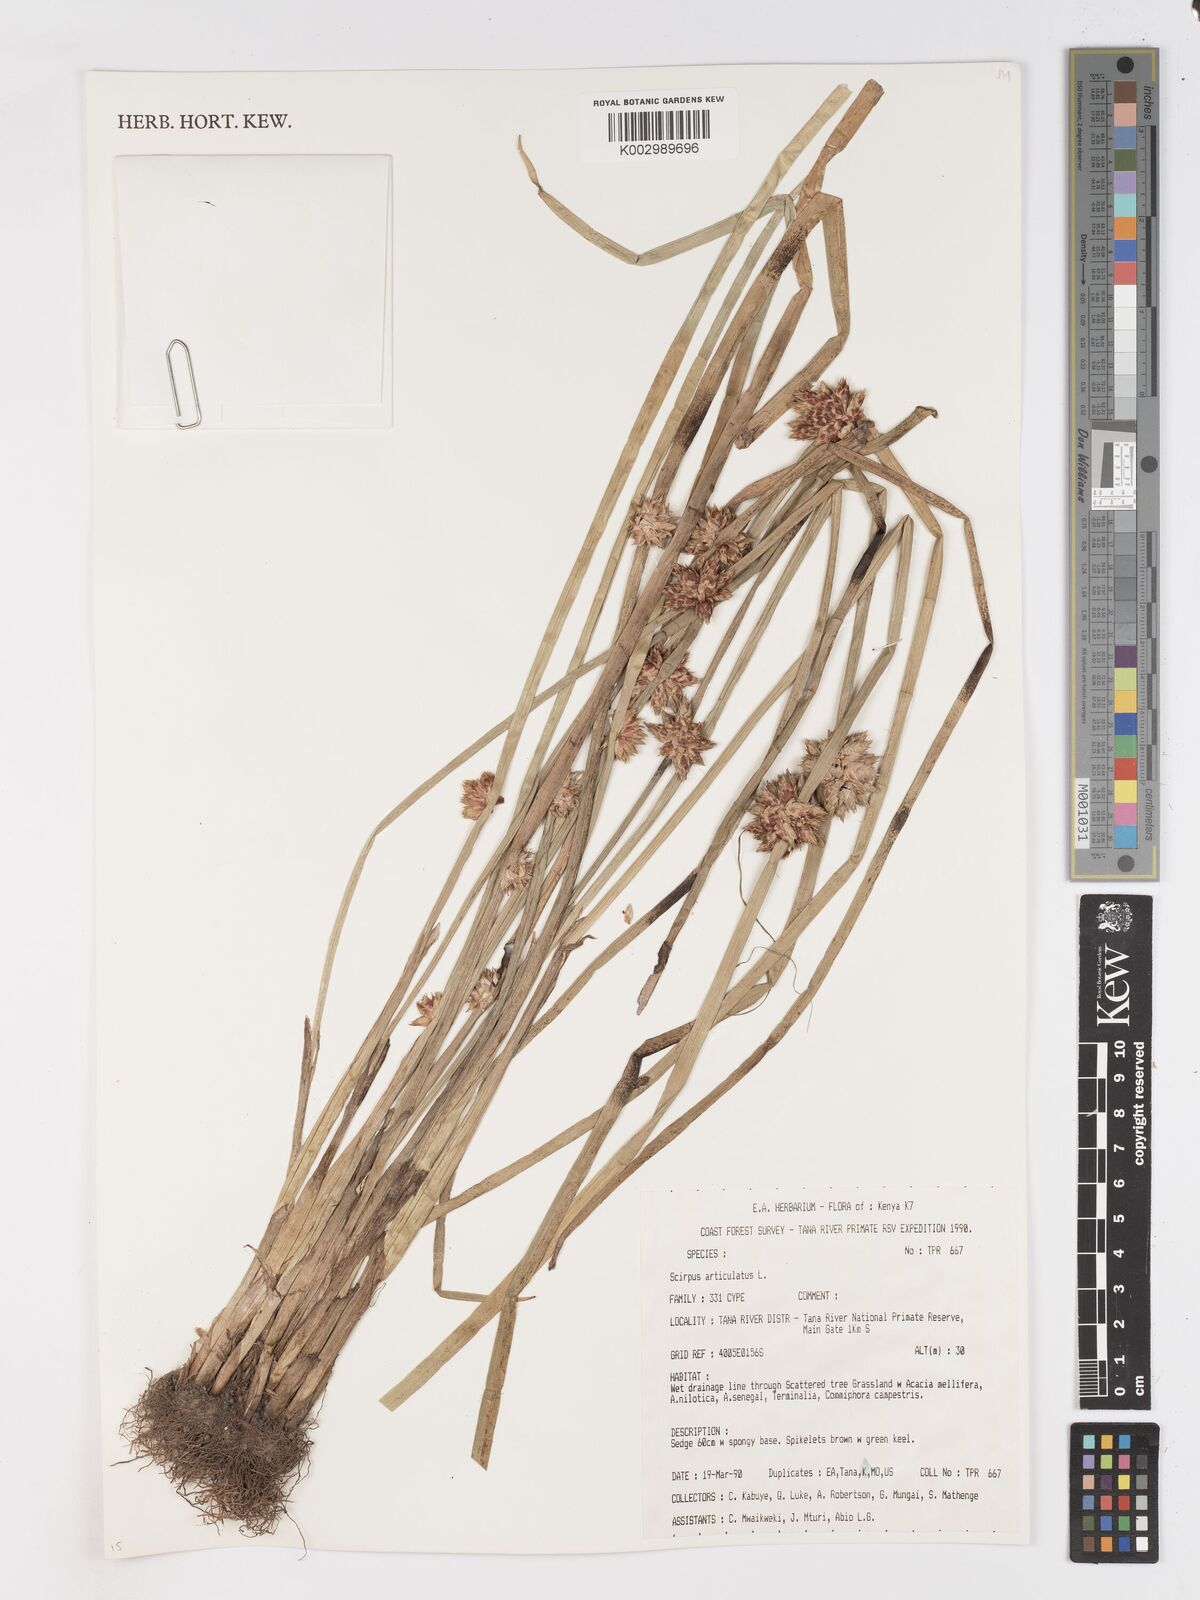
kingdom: Plantae
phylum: Tracheophyta
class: Liliopsida
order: Poales
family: Cyperaceae
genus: Schoenoplectiella
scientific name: Schoenoplectiella articulata
